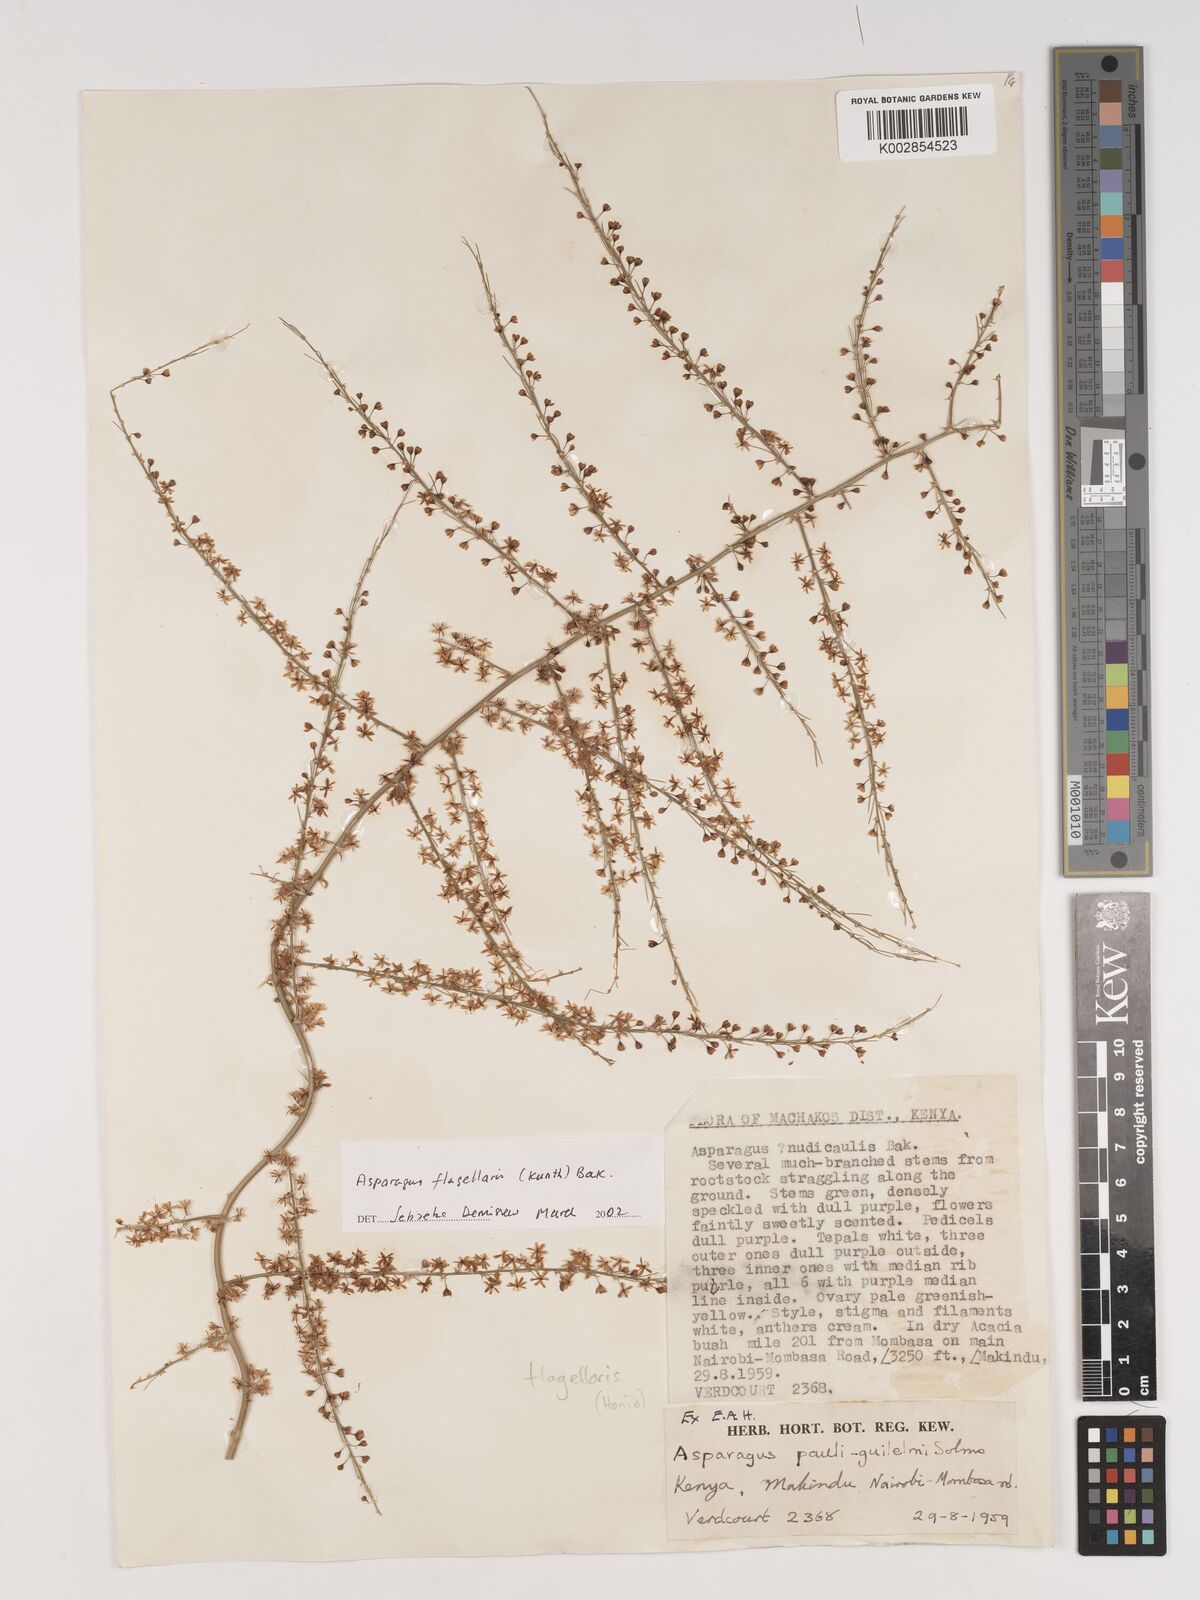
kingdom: Plantae
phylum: Tracheophyta
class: Liliopsida
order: Asparagales
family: Asparagaceae
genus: Asparagus
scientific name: Asparagus flagellaris
